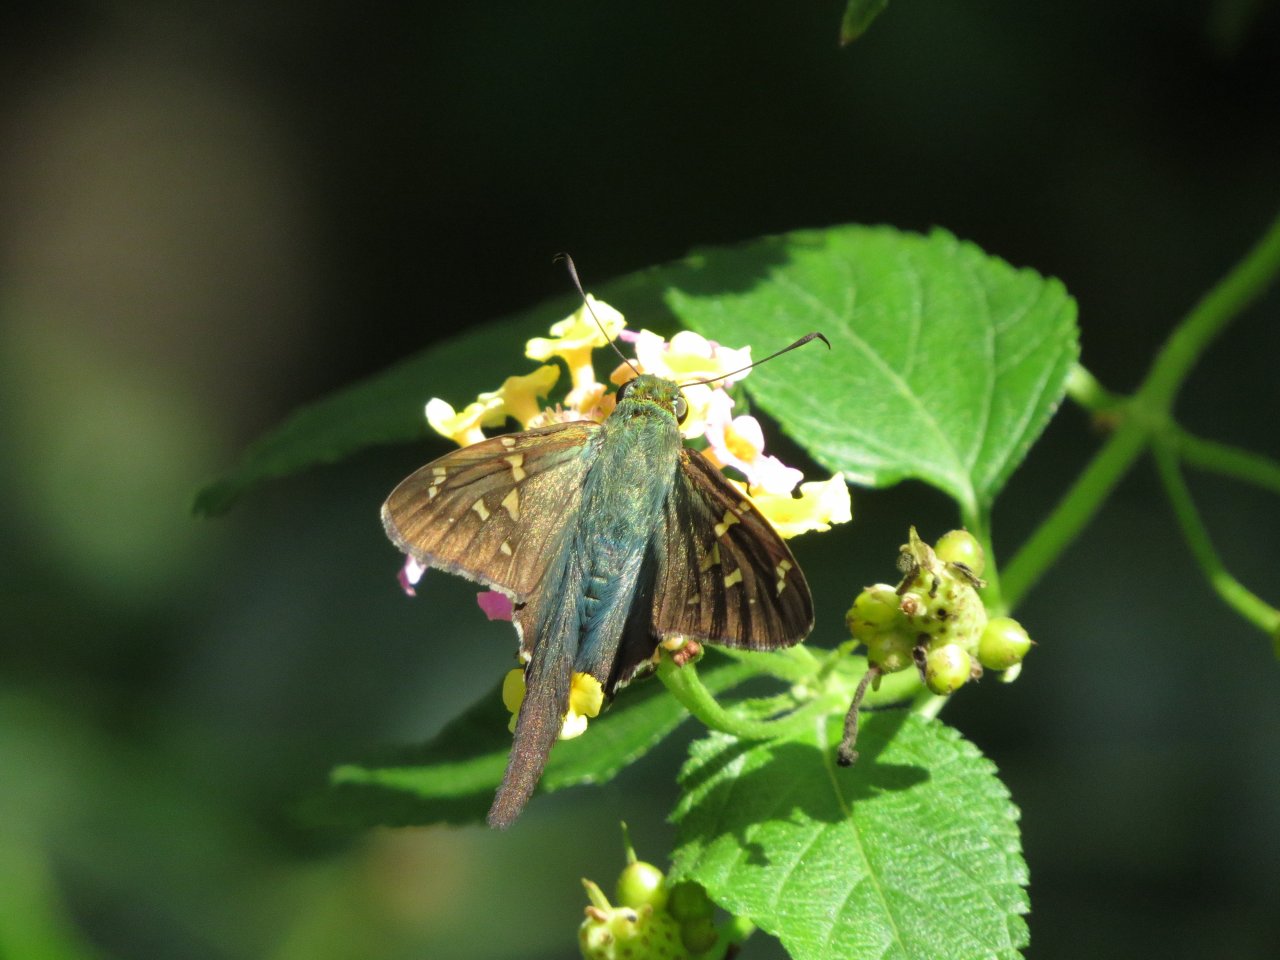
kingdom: Animalia
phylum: Arthropoda
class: Insecta
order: Lepidoptera
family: Hesperiidae
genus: Urbanus
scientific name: Urbanus proteus
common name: Long-tailed Skipper
